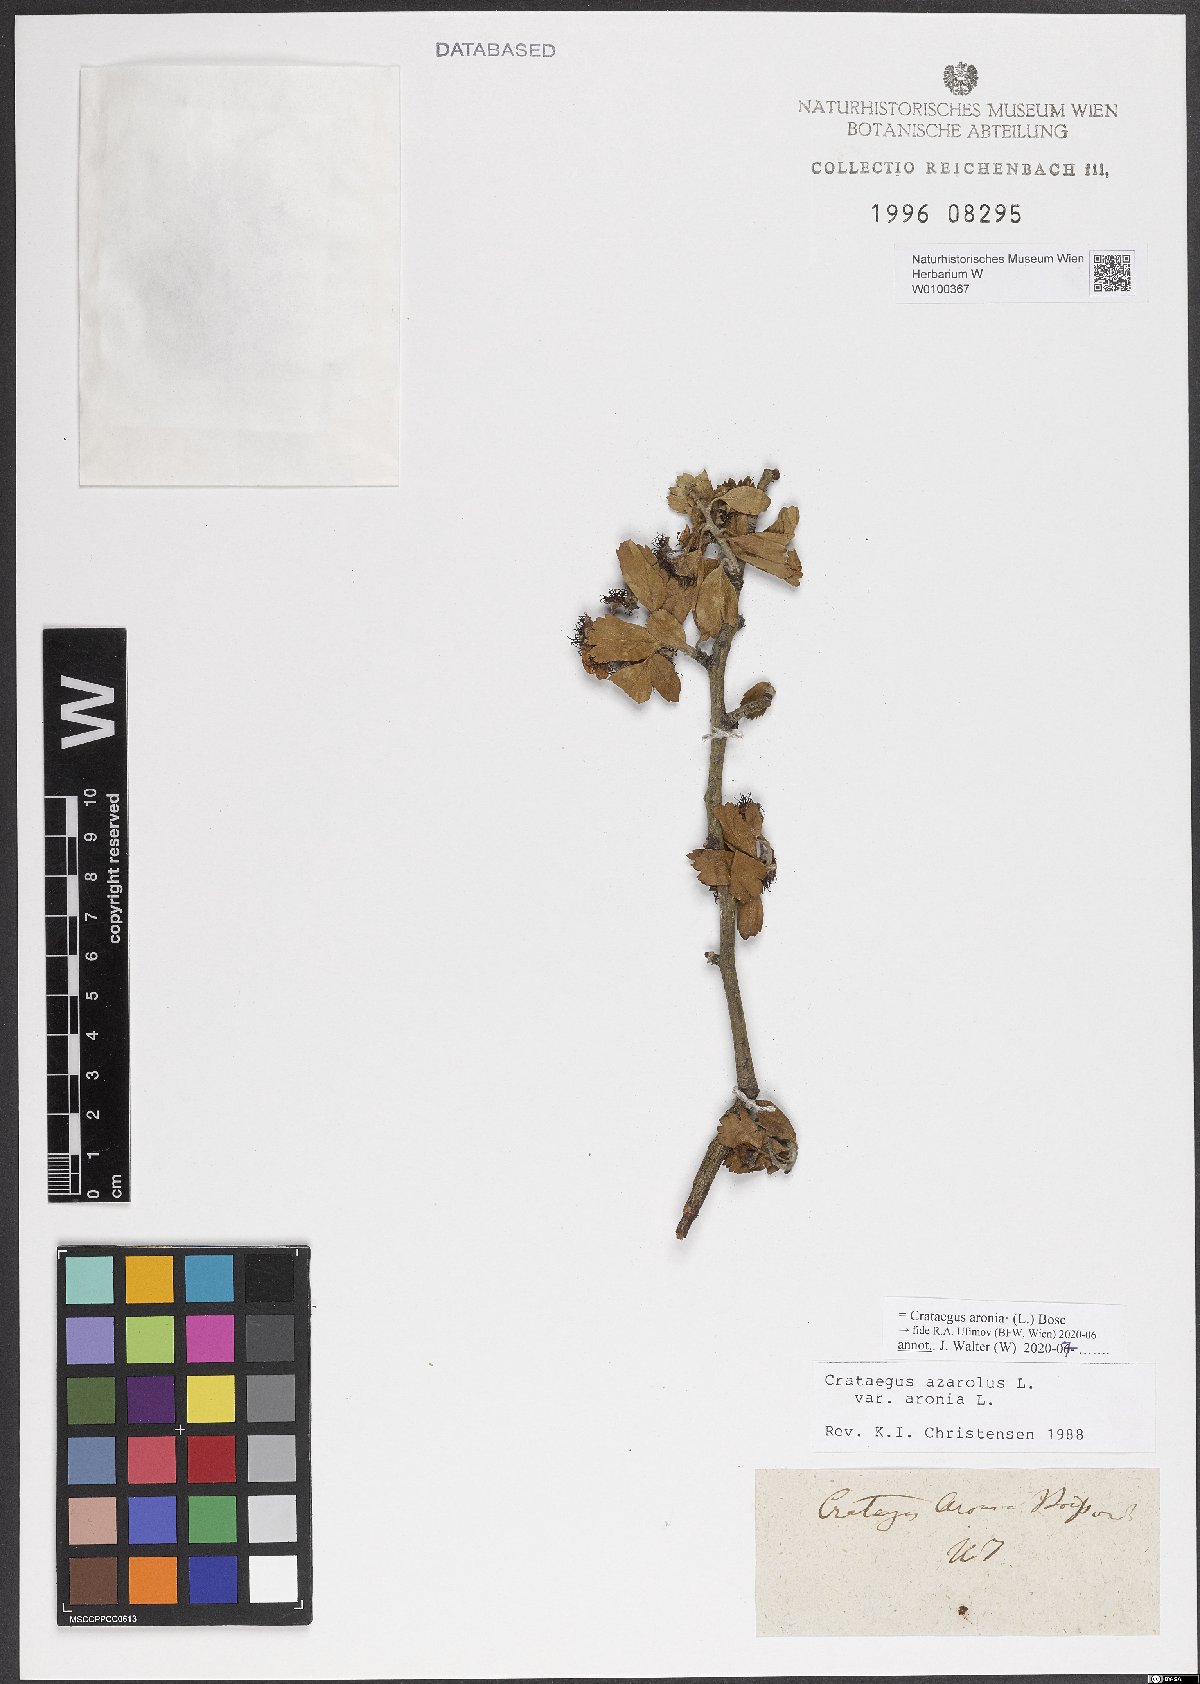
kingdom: Plantae
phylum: Tracheophyta
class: Magnoliopsida
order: Rosales
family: Rosaceae
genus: Crataegus
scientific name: Crataegus azarolus
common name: Azarole
